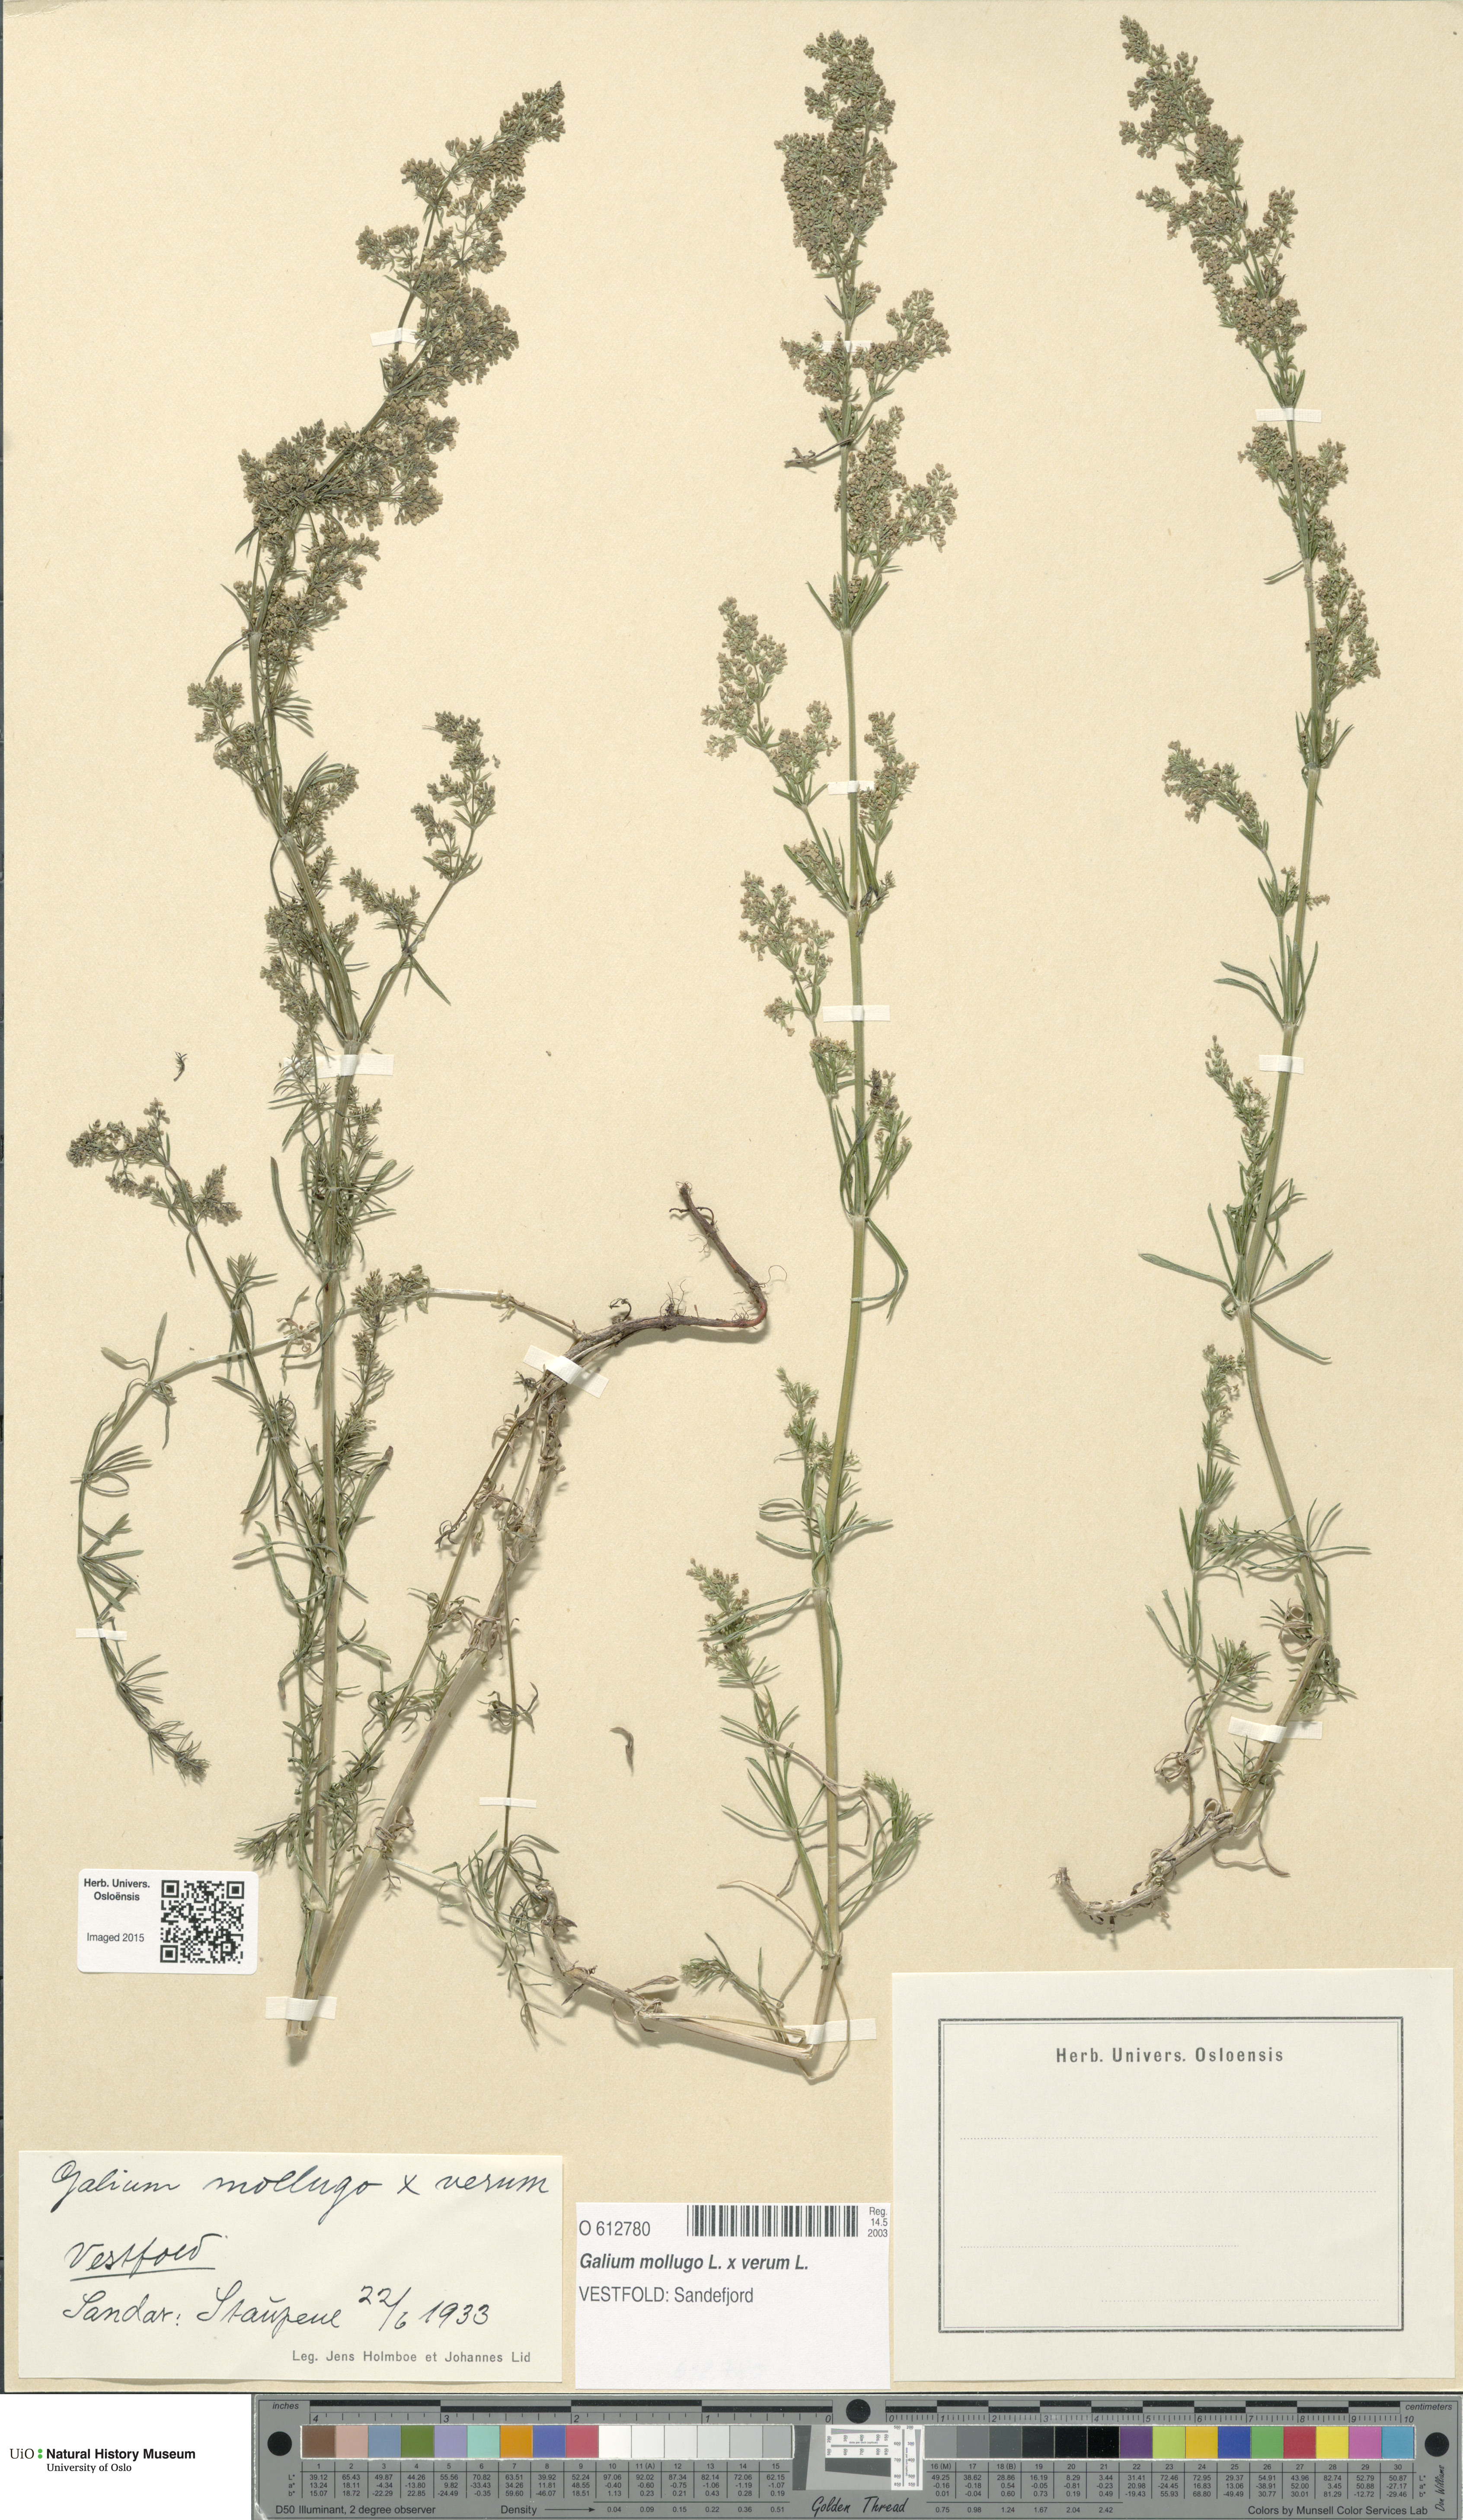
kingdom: Plantae
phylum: Tracheophyta
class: Magnoliopsida
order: Gentianales
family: Rubiaceae
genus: Galium
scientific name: Galium
